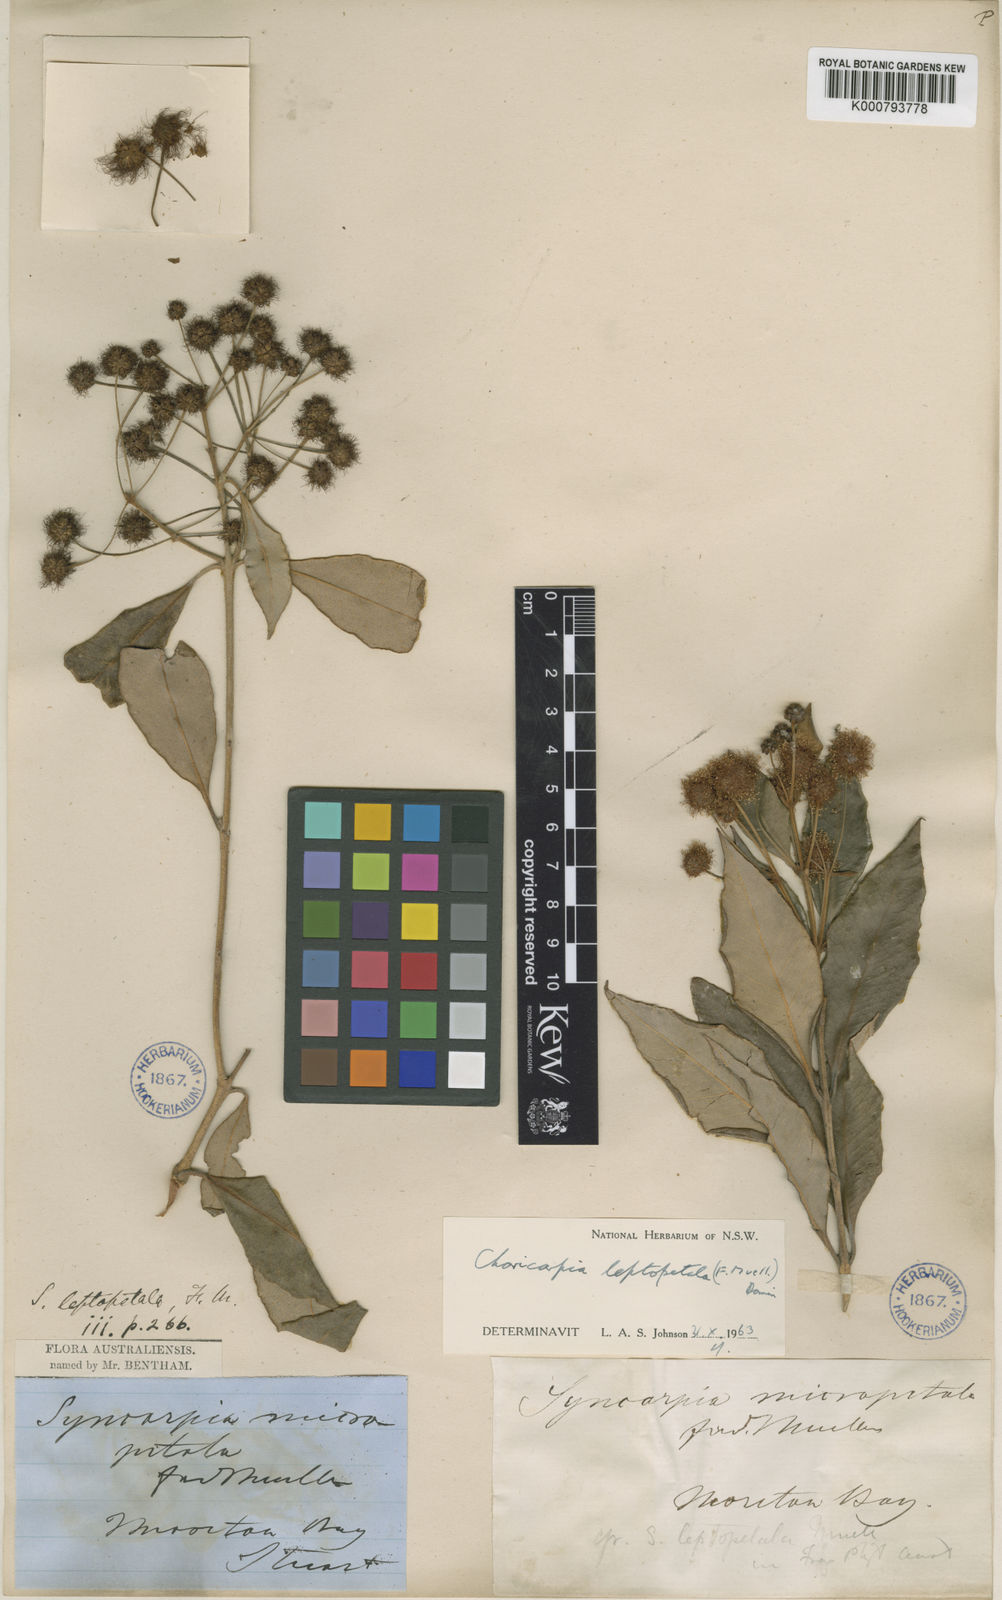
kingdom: Plantae
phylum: Tracheophyta
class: Magnoliopsida
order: Myrtales
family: Myrtaceae
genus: Backhousia
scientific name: Backhousia leptopetala
